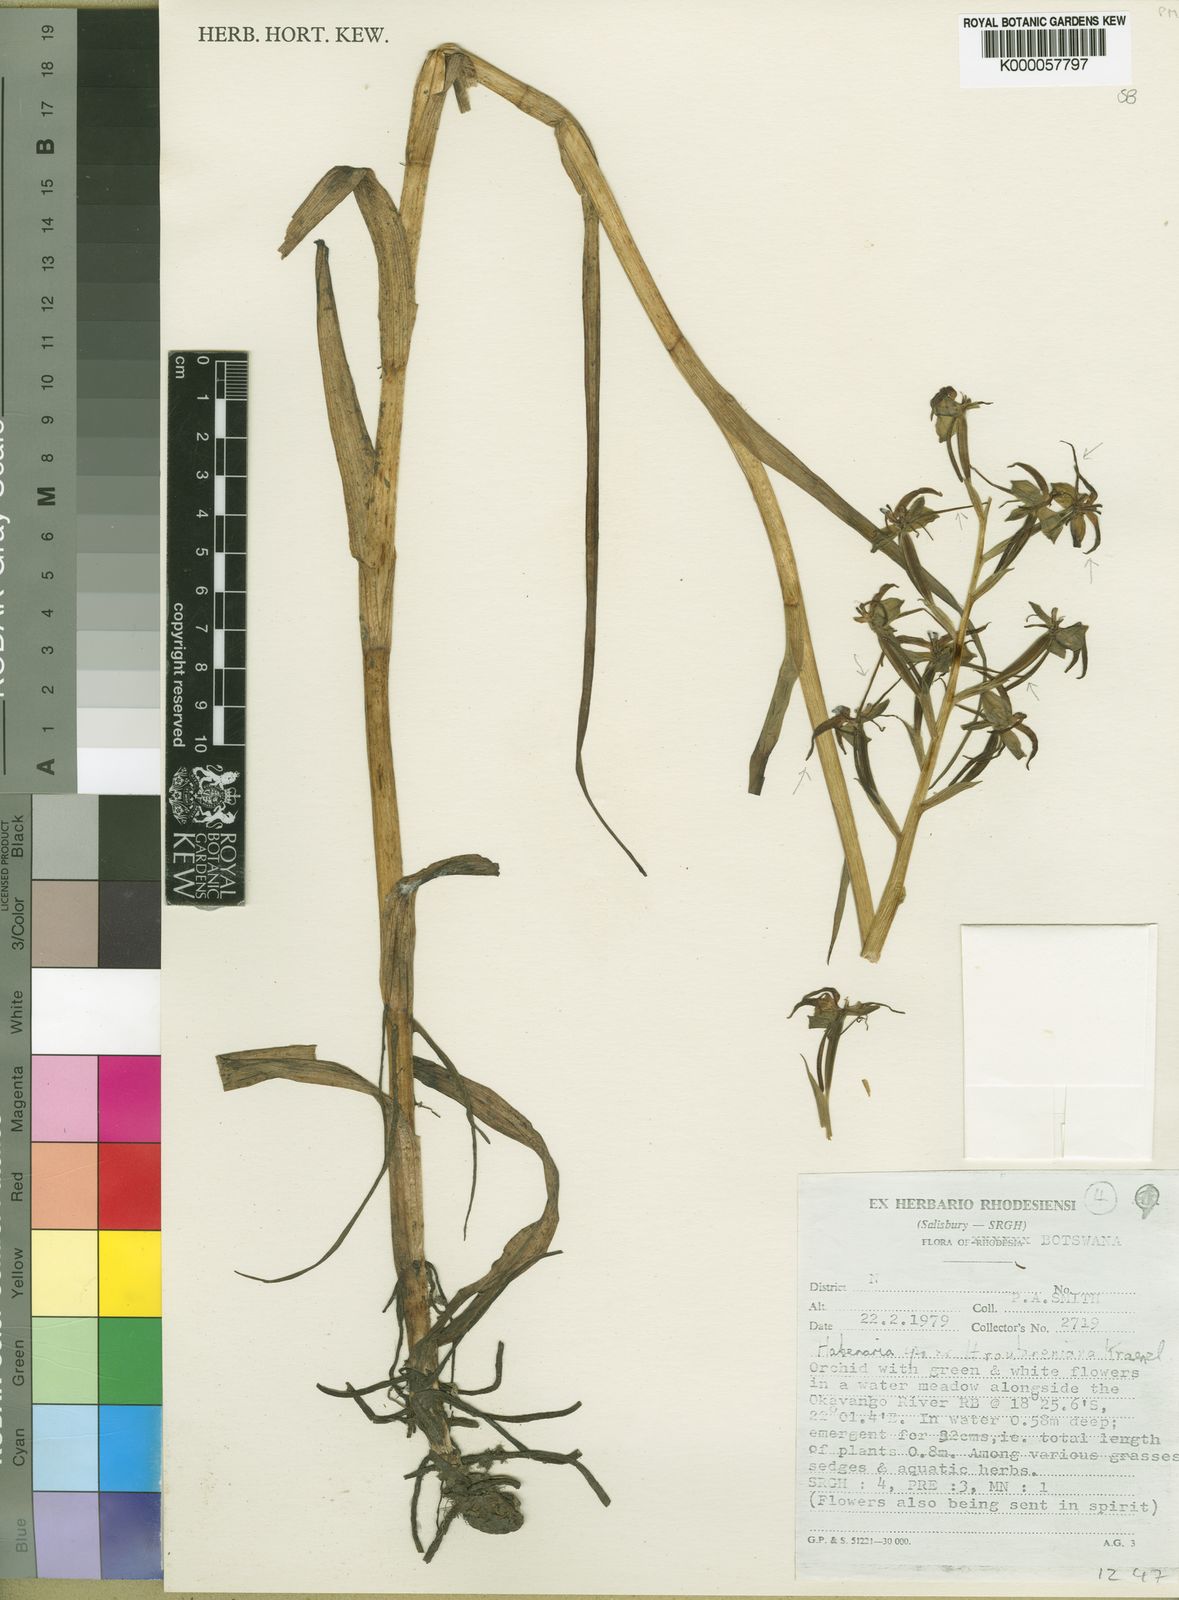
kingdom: Plantae
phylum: Tracheophyta
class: Liliopsida
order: Asparagales
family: Orchidaceae
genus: Habenaria
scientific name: Habenaria pasmithii
